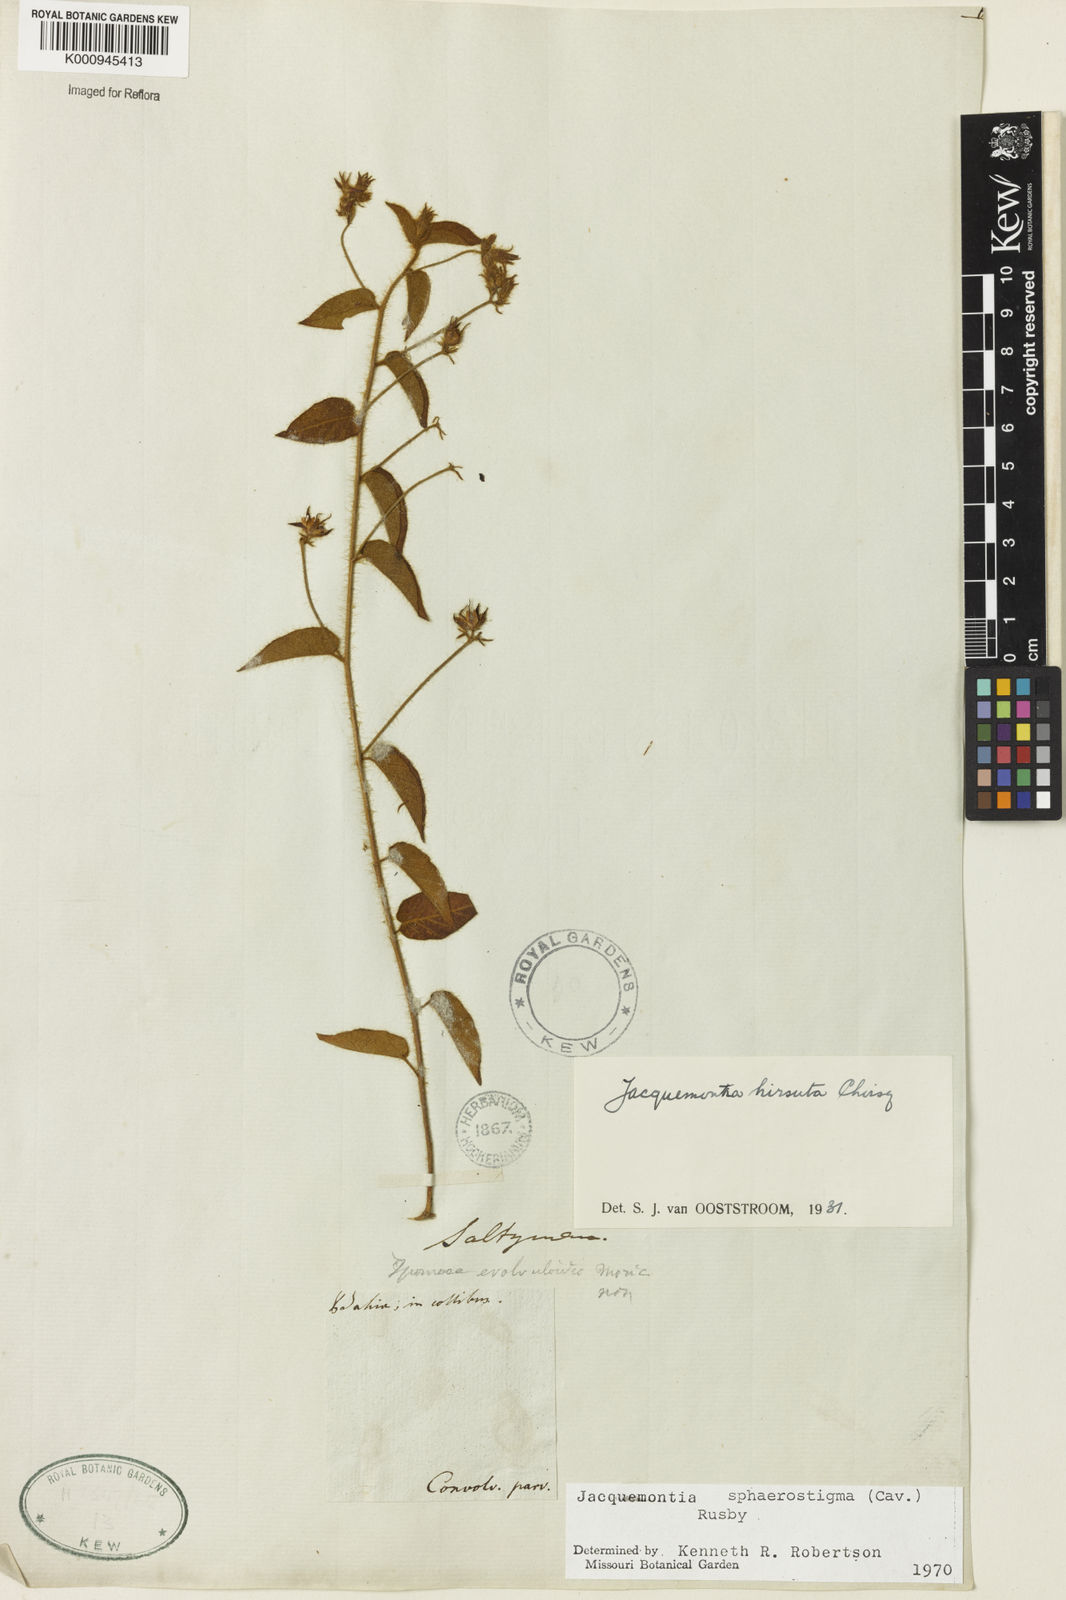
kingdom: Plantae
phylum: Tracheophyta
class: Magnoliopsida
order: Solanales
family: Convolvulaceae
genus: Jacquemontia
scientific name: Jacquemontia sphaerostigma
